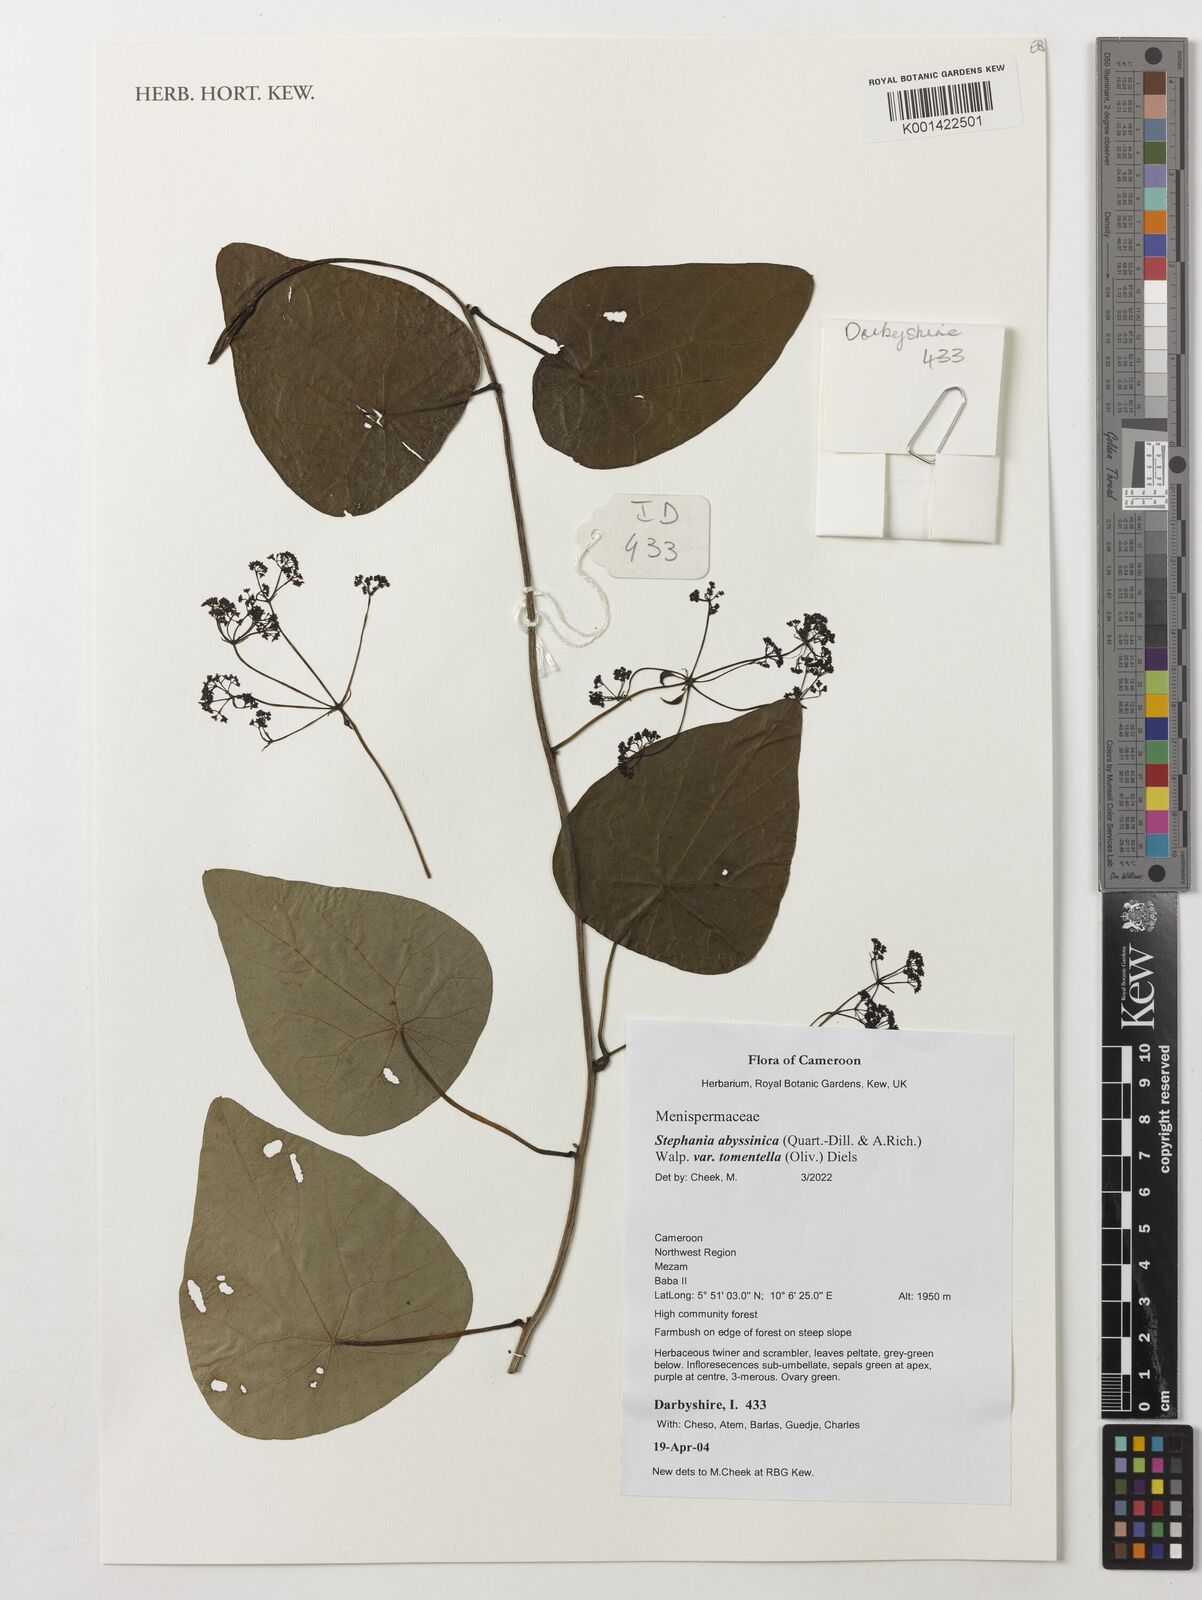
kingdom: Plantae
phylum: Tracheophyta
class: Magnoliopsida
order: Ranunculales
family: Menispermaceae
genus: Stephania
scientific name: Stephania abyssinica
